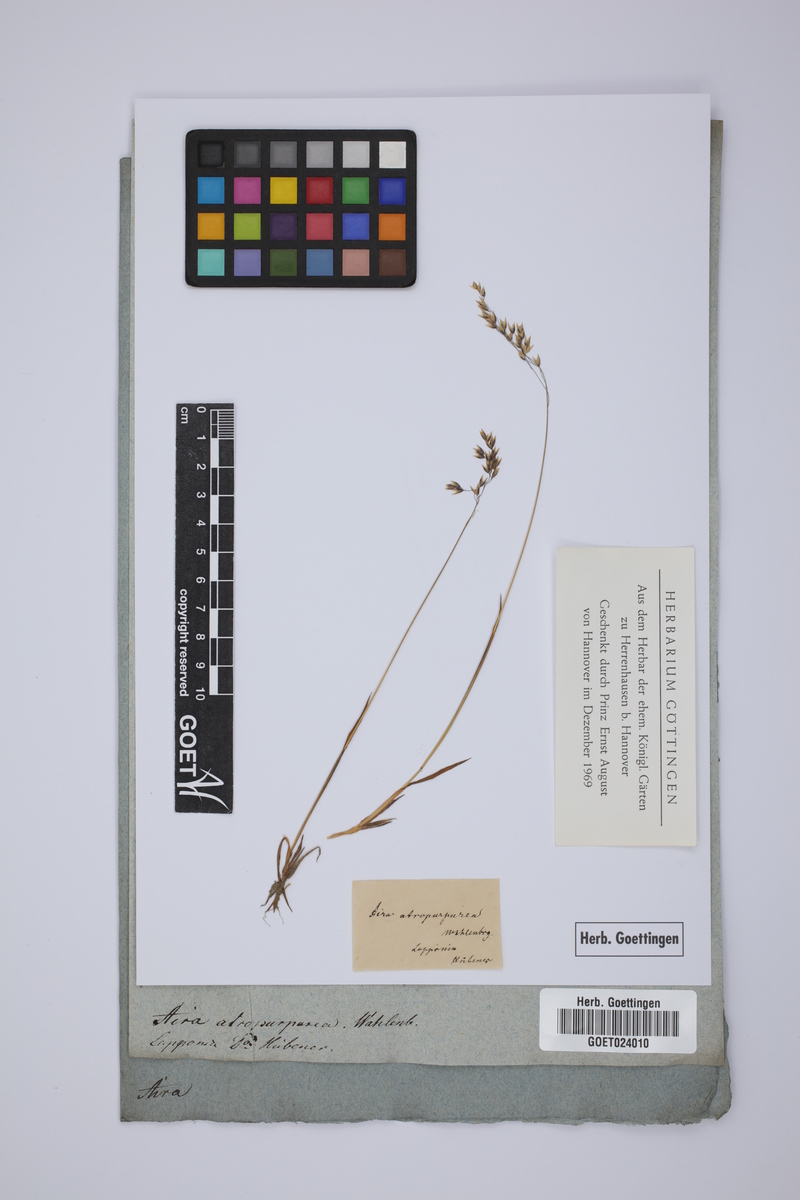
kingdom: Plantae
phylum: Tracheophyta
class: Liliopsida
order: Poales
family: Poaceae
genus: Vahlodea
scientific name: Vahlodea atropurpurea
